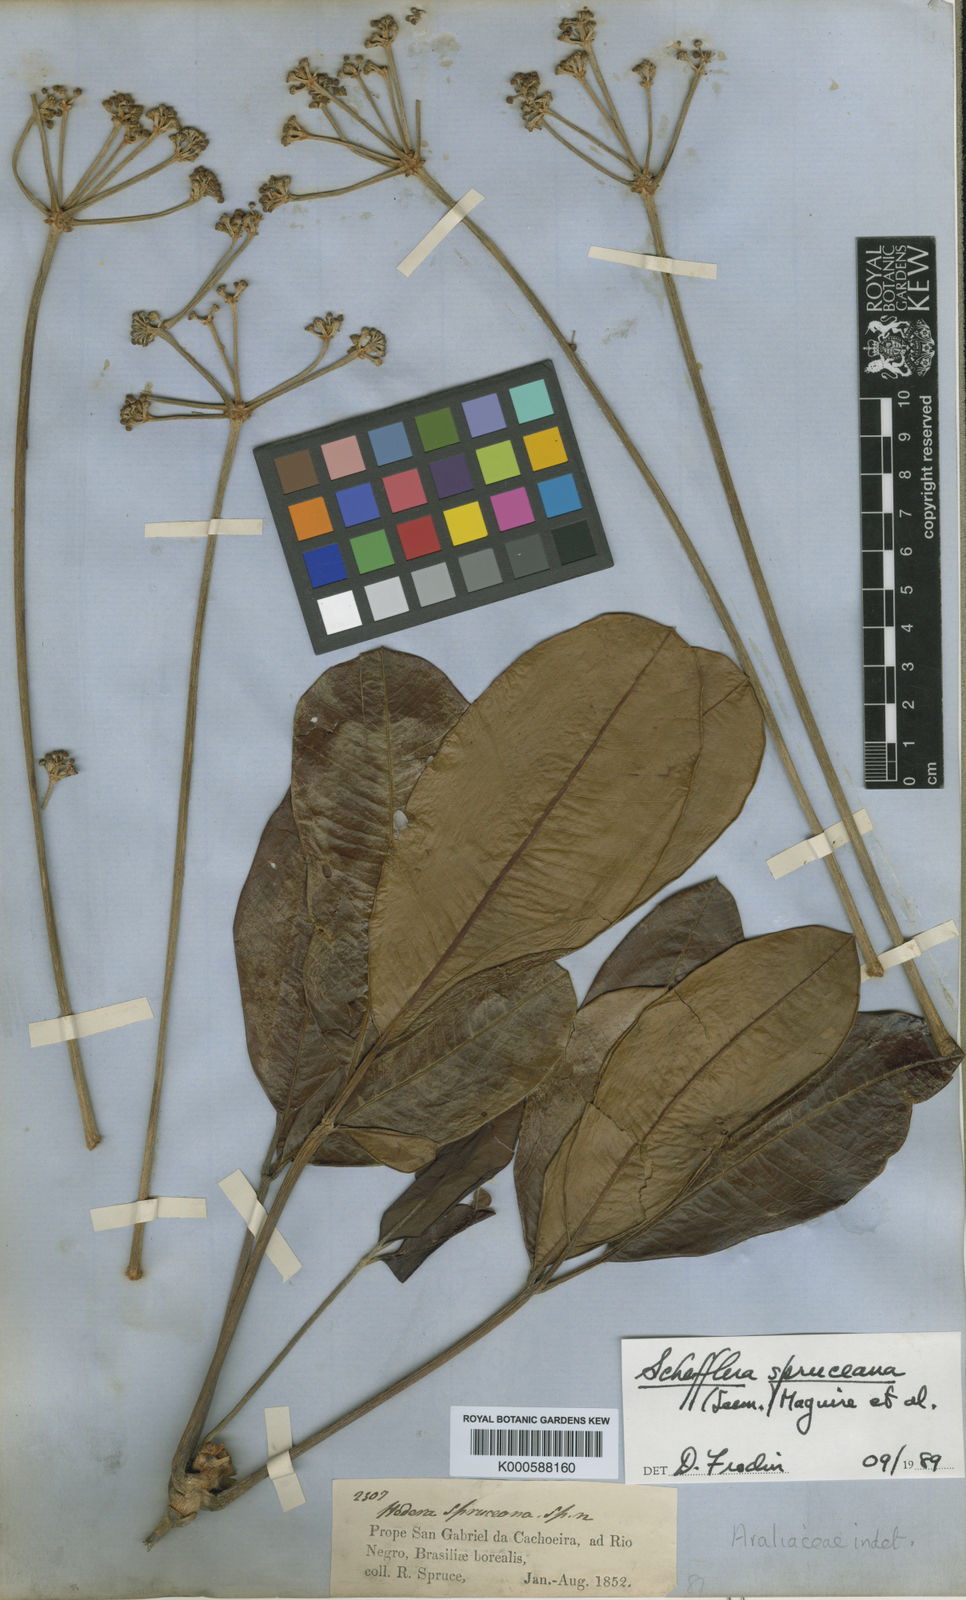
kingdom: Plantae
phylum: Tracheophyta
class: Magnoliopsida
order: Apiales
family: Araliaceae
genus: Crepinella
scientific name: Crepinella spruceana
